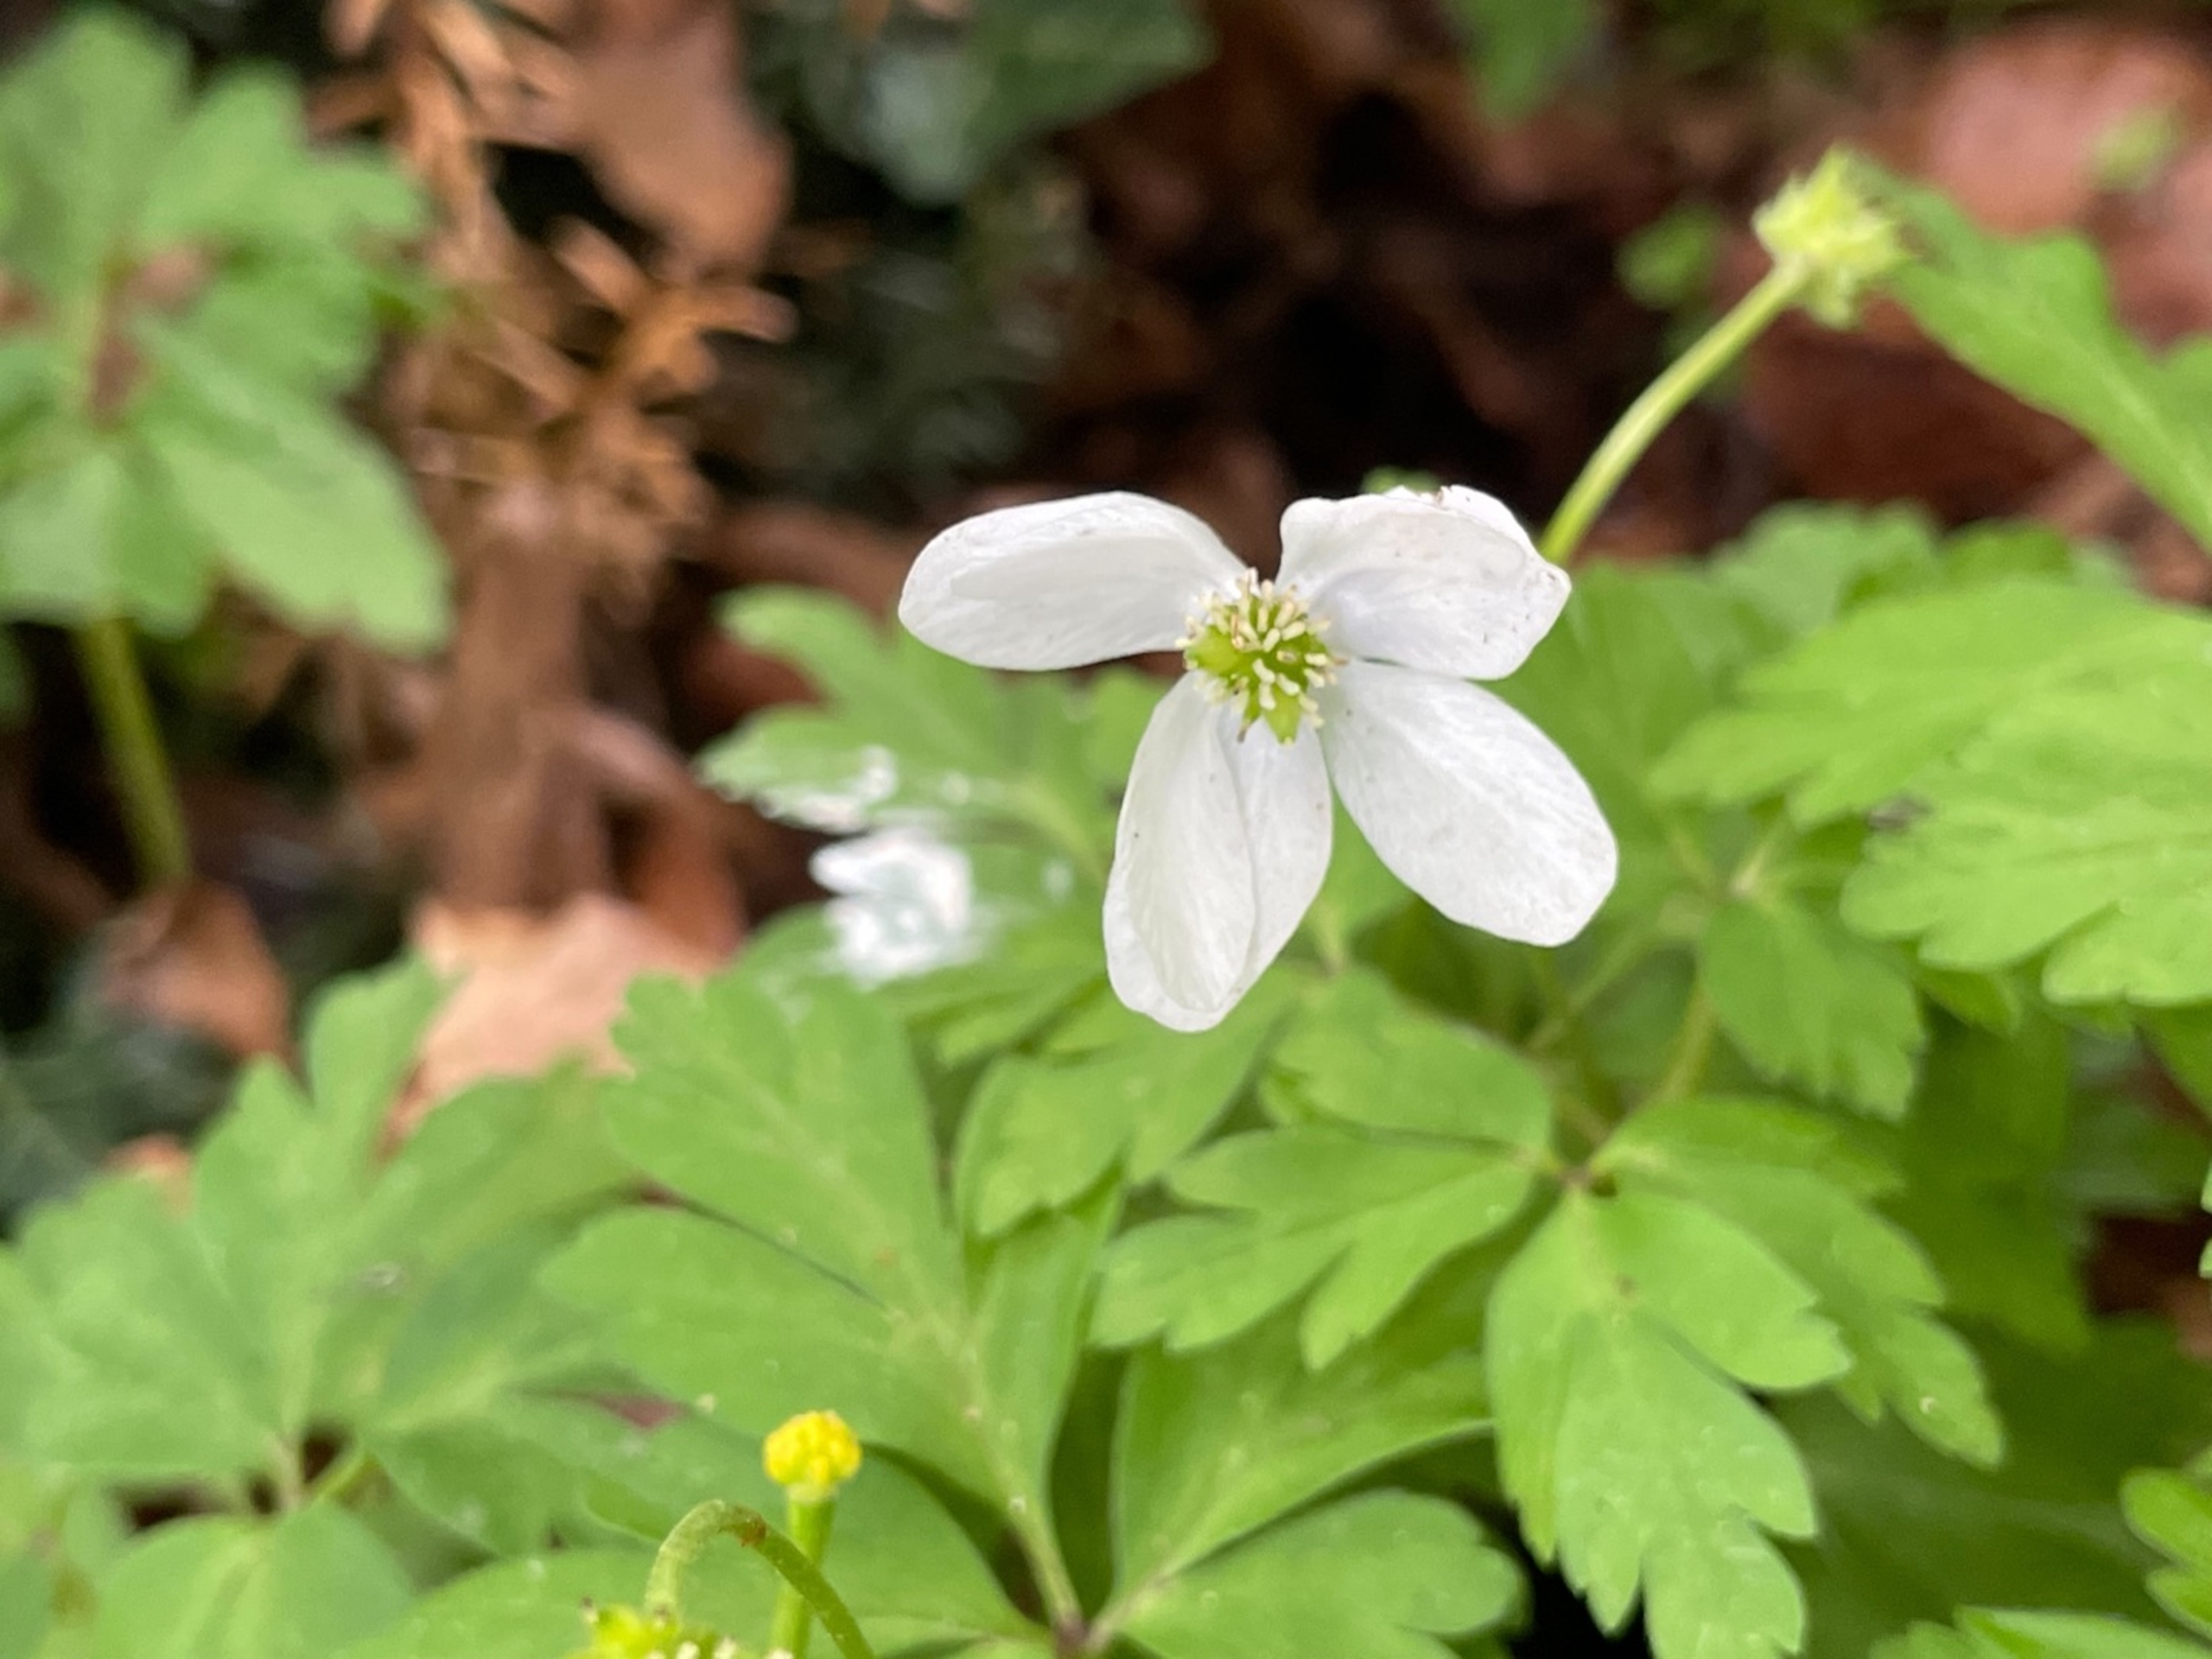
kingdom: Plantae
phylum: Tracheophyta
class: Magnoliopsida
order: Ranunculales
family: Ranunculaceae
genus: Anemone
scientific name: Anemone nemorosa
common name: Hvid anemone
